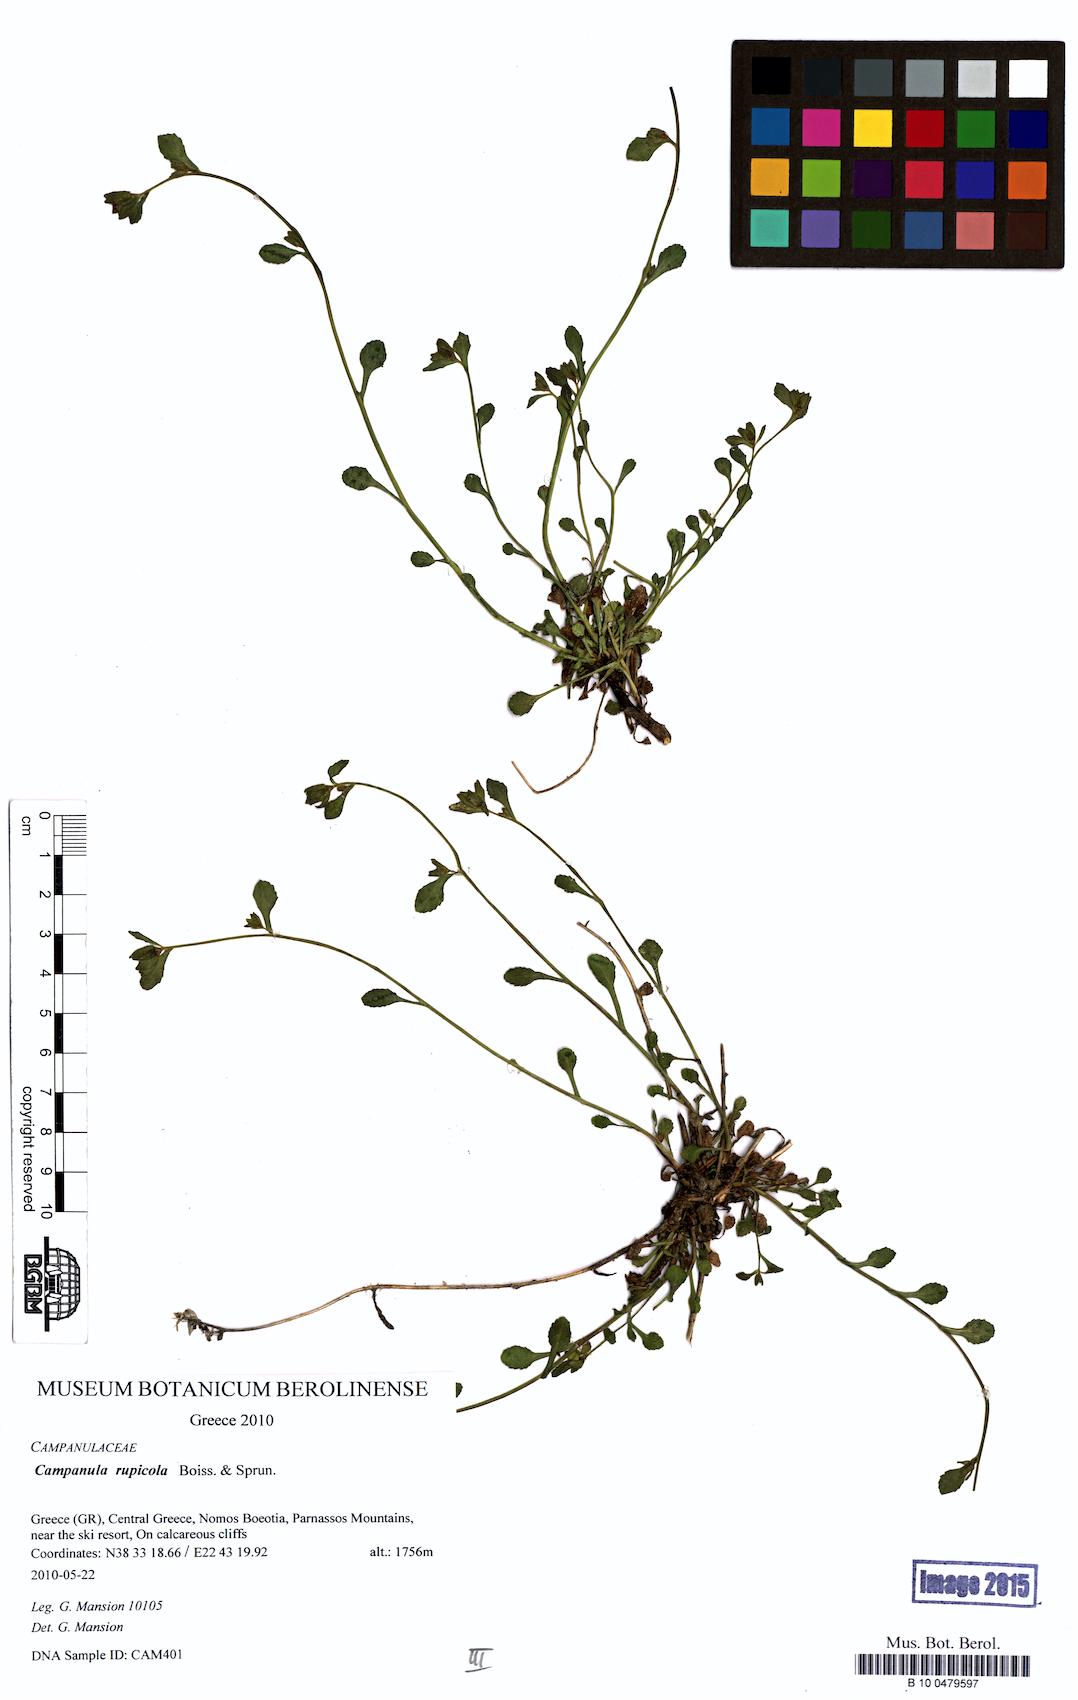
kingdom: Plantae
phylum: Tracheophyta
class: Magnoliopsida
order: Asterales
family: Campanulaceae
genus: Campanula
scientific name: Campanula rupicola
